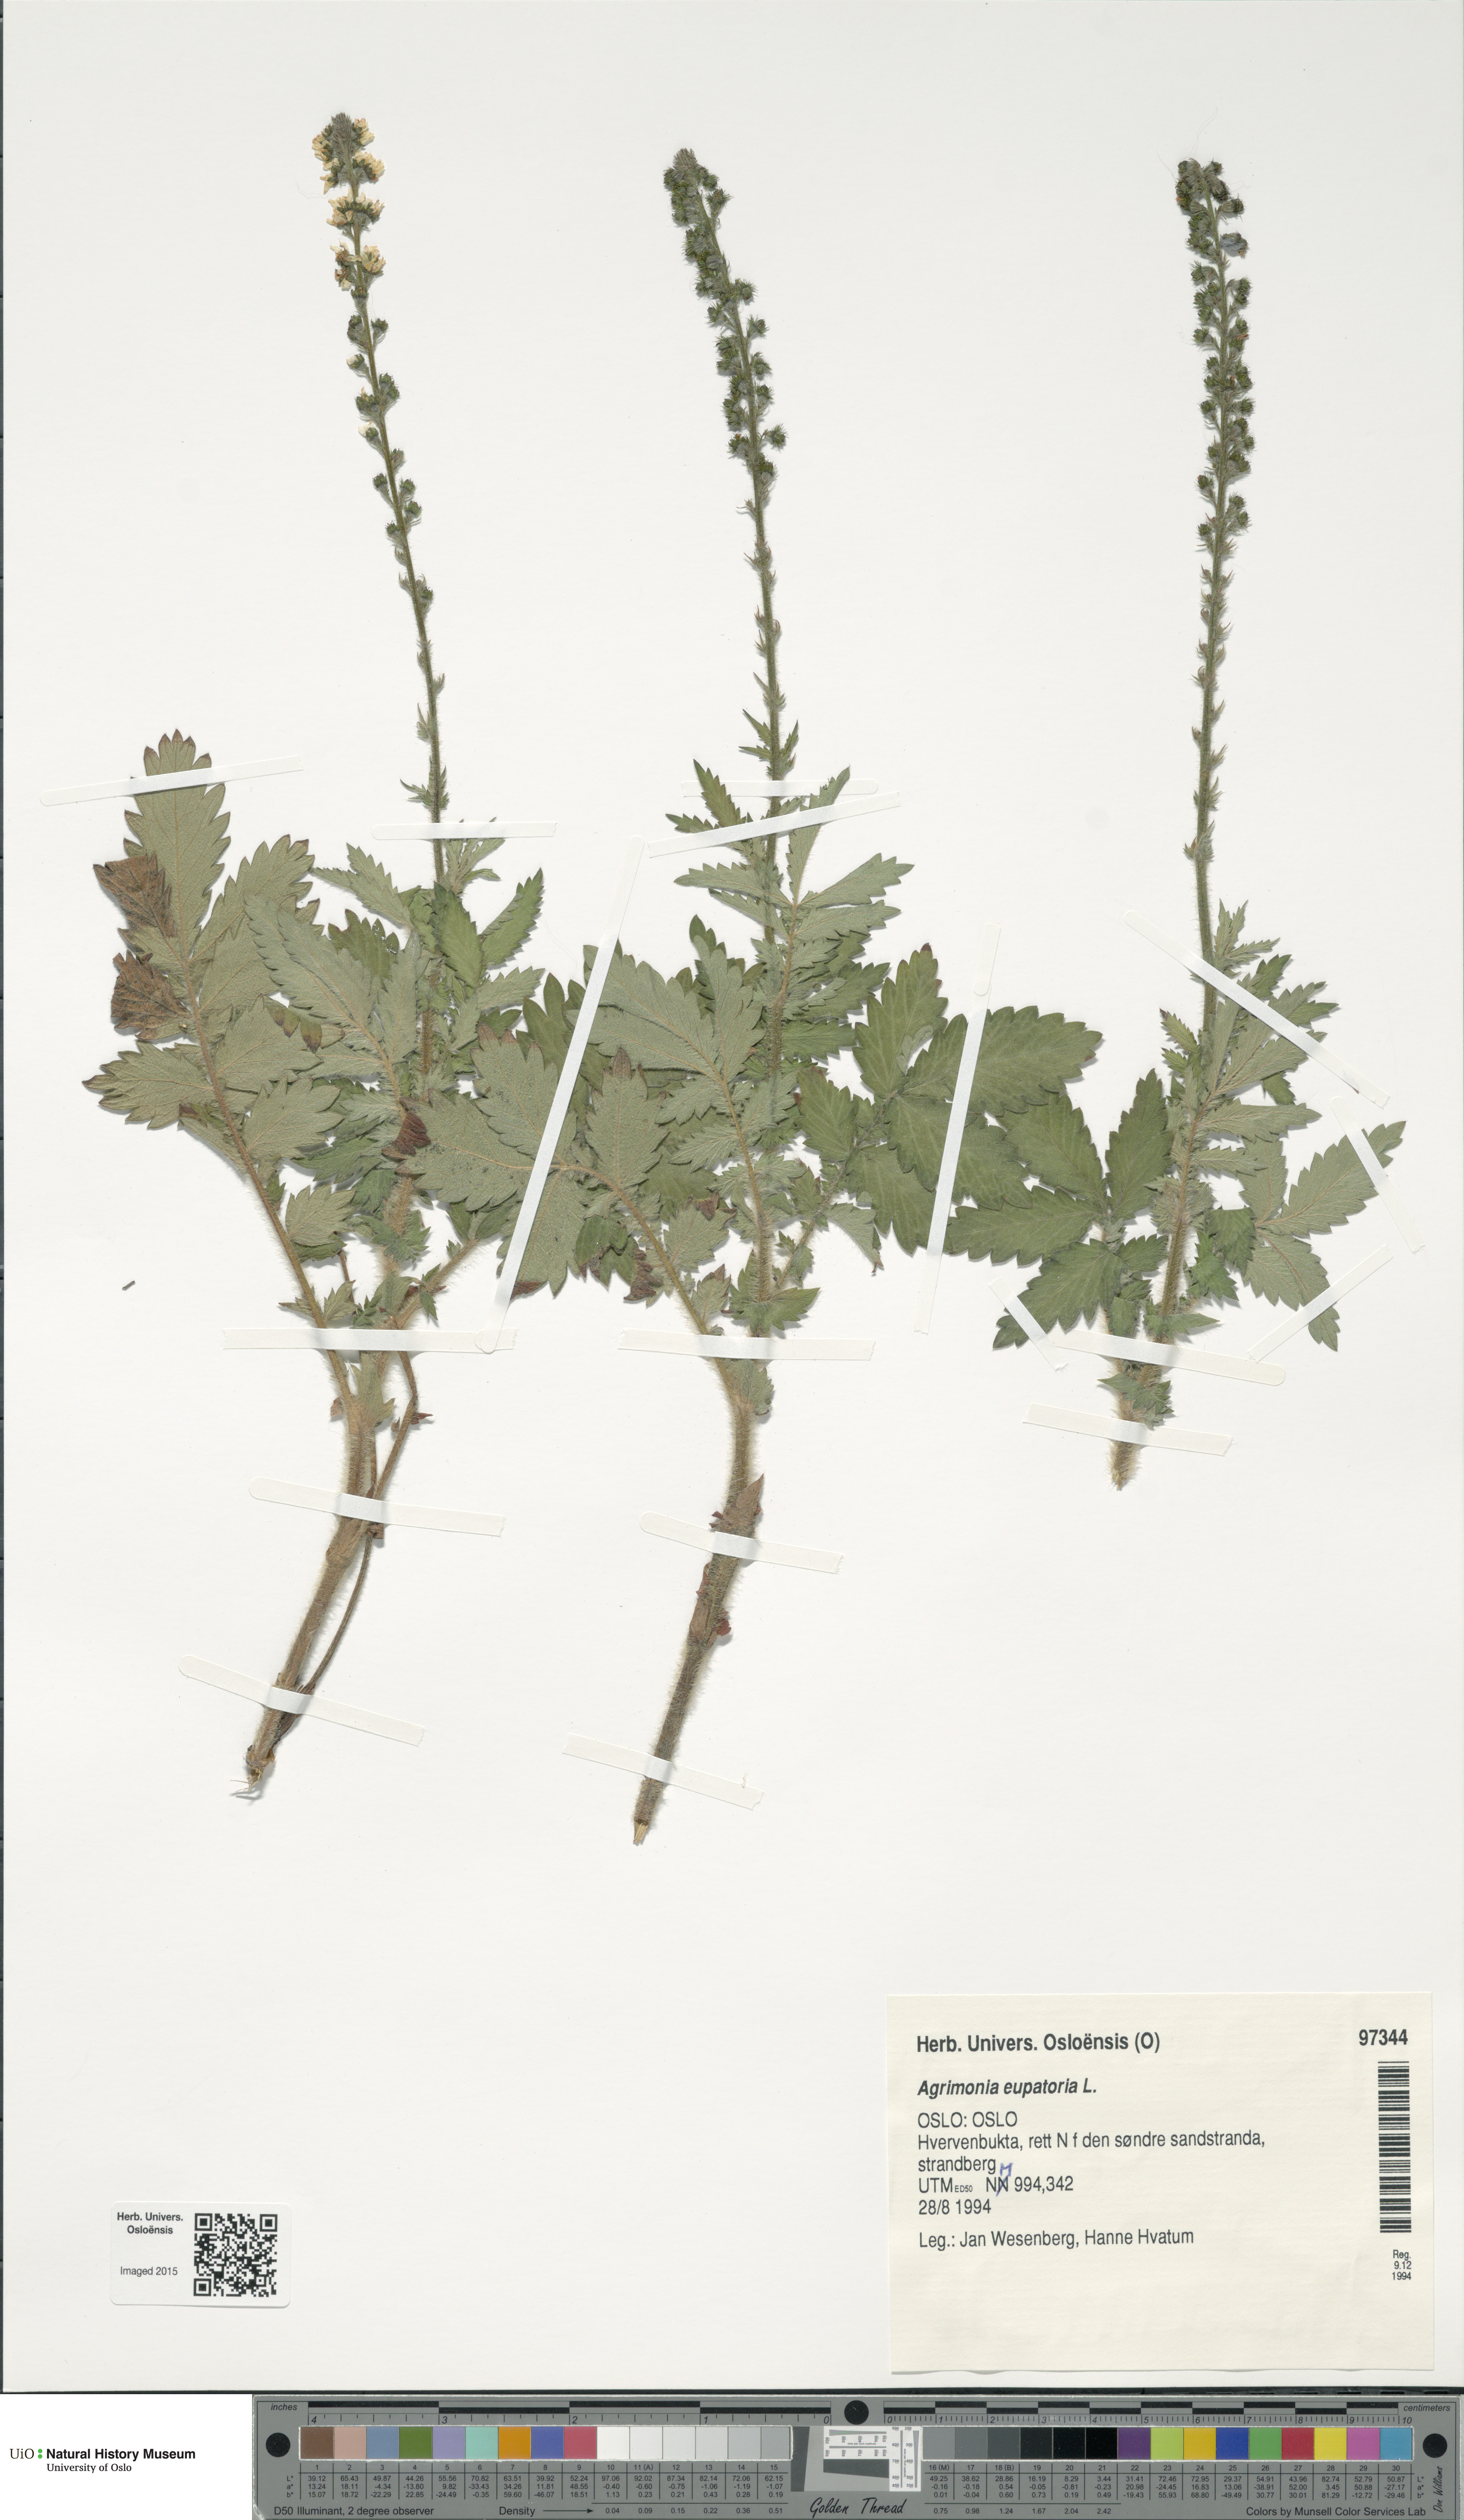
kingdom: Plantae
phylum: Tracheophyta
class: Magnoliopsida
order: Rosales
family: Rosaceae
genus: Agrimonia
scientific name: Agrimonia eupatoria
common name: Agrimony
